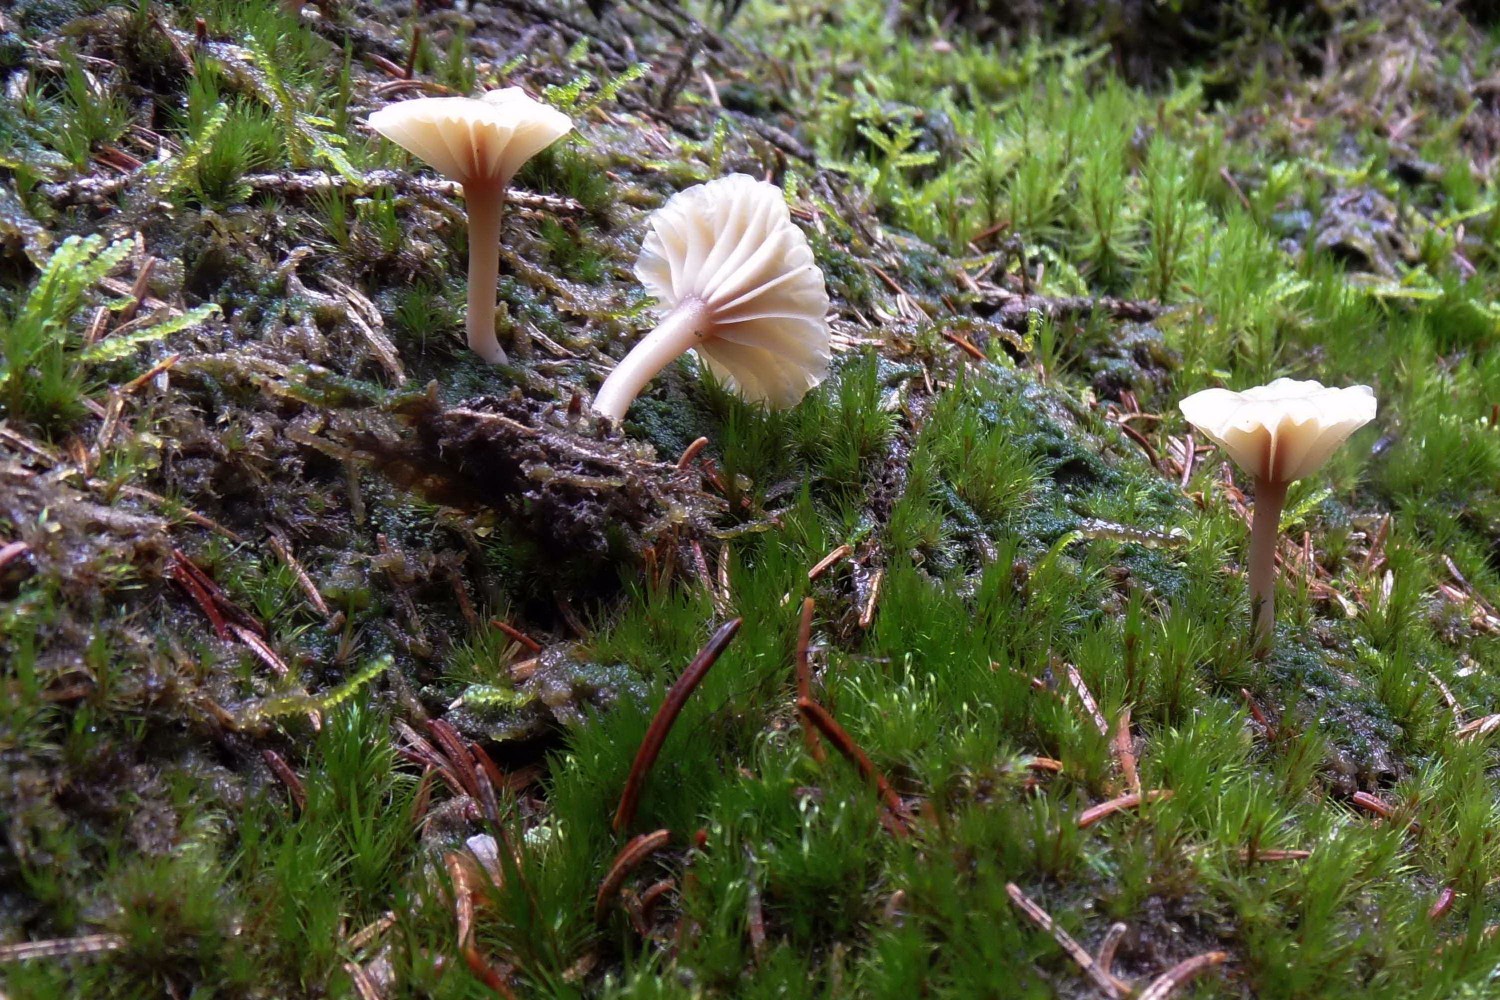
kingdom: Fungi
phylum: Basidiomycota
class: Agaricomycetes
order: Agaricales
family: Hygrophoraceae
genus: Lichenomphalia
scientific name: Lichenomphalia umbellifera
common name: tørve-lavhat
